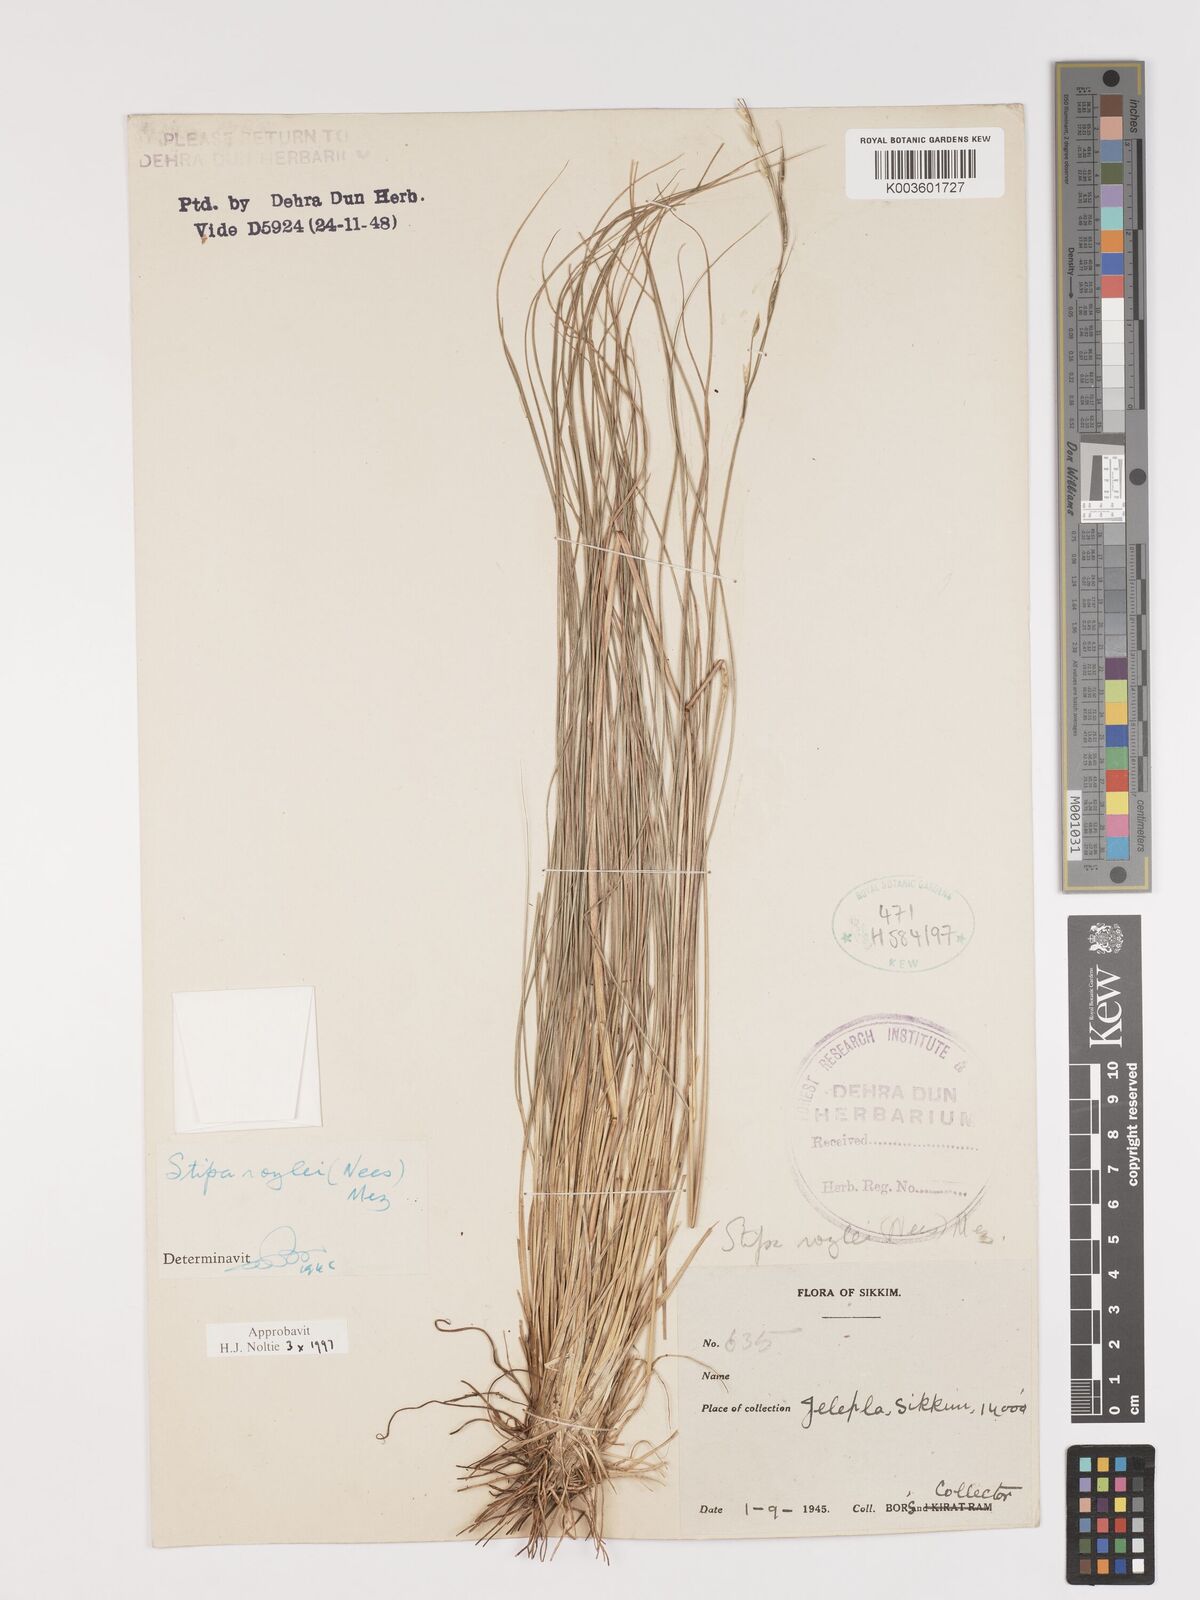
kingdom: Plantae
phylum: Tracheophyta
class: Liliopsida
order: Poales
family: Poaceae
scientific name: Poaceae
